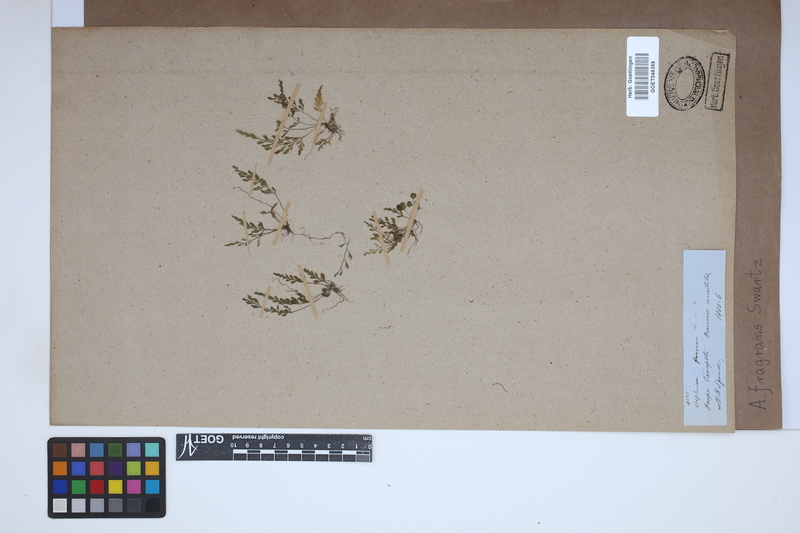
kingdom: Plantae
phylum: Tracheophyta
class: Polypodiopsida
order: Polypodiales
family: Aspleniaceae
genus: Asplenium
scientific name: Asplenium fragrans
